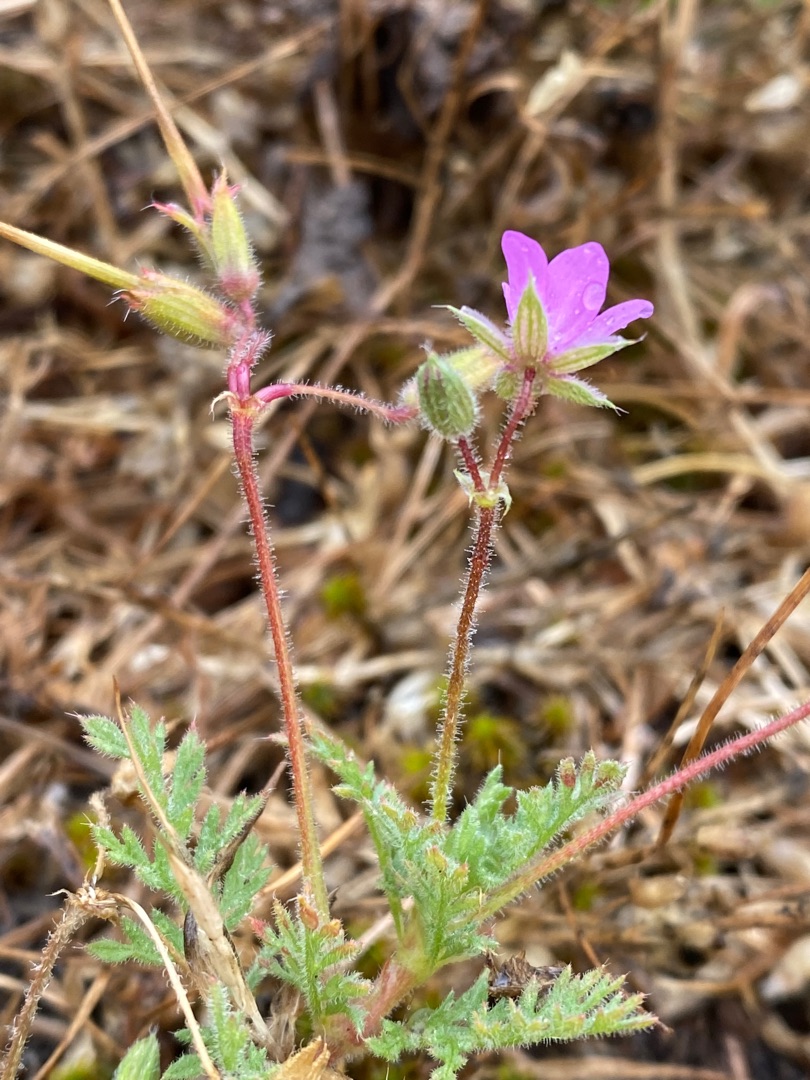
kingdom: Plantae
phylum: Tracheophyta
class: Magnoliopsida
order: Geraniales
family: Geraniaceae
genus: Erodium
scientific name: Erodium cicutarium
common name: Hejrenæb
